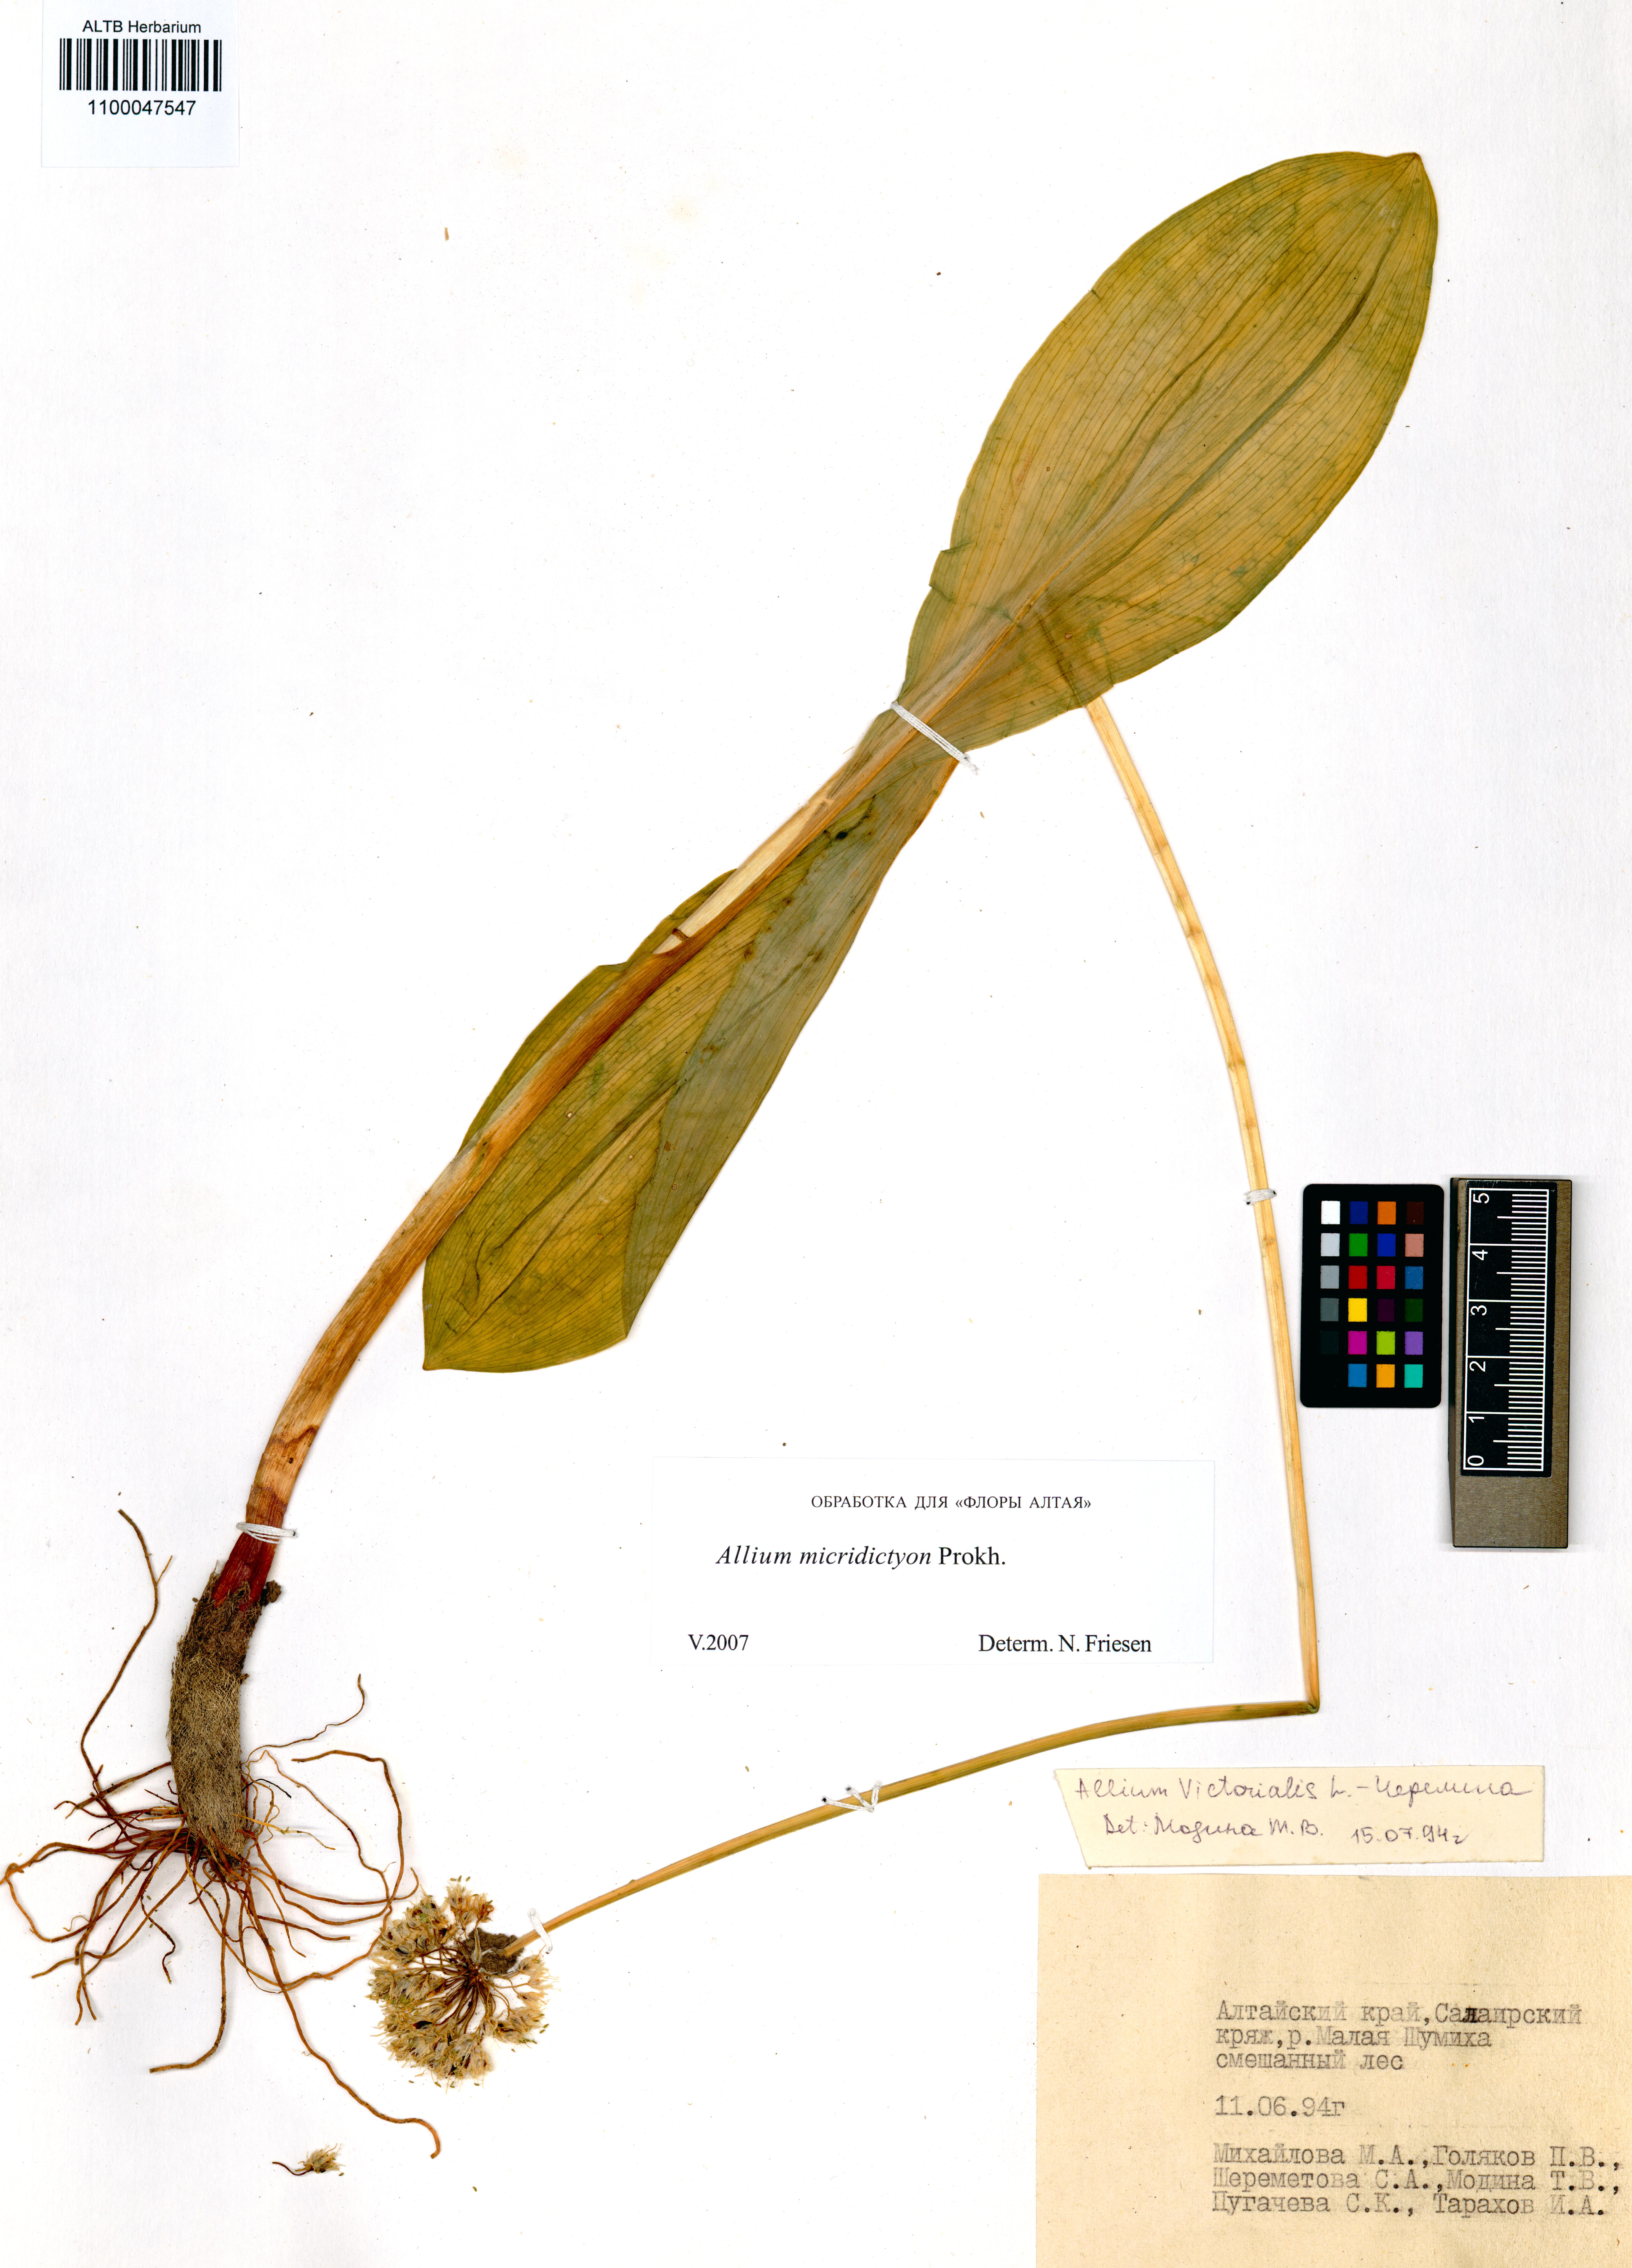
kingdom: Plantae
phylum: Tracheophyta
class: Liliopsida
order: Asparagales
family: Amaryllidaceae
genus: Allium
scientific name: Allium microdictyon
